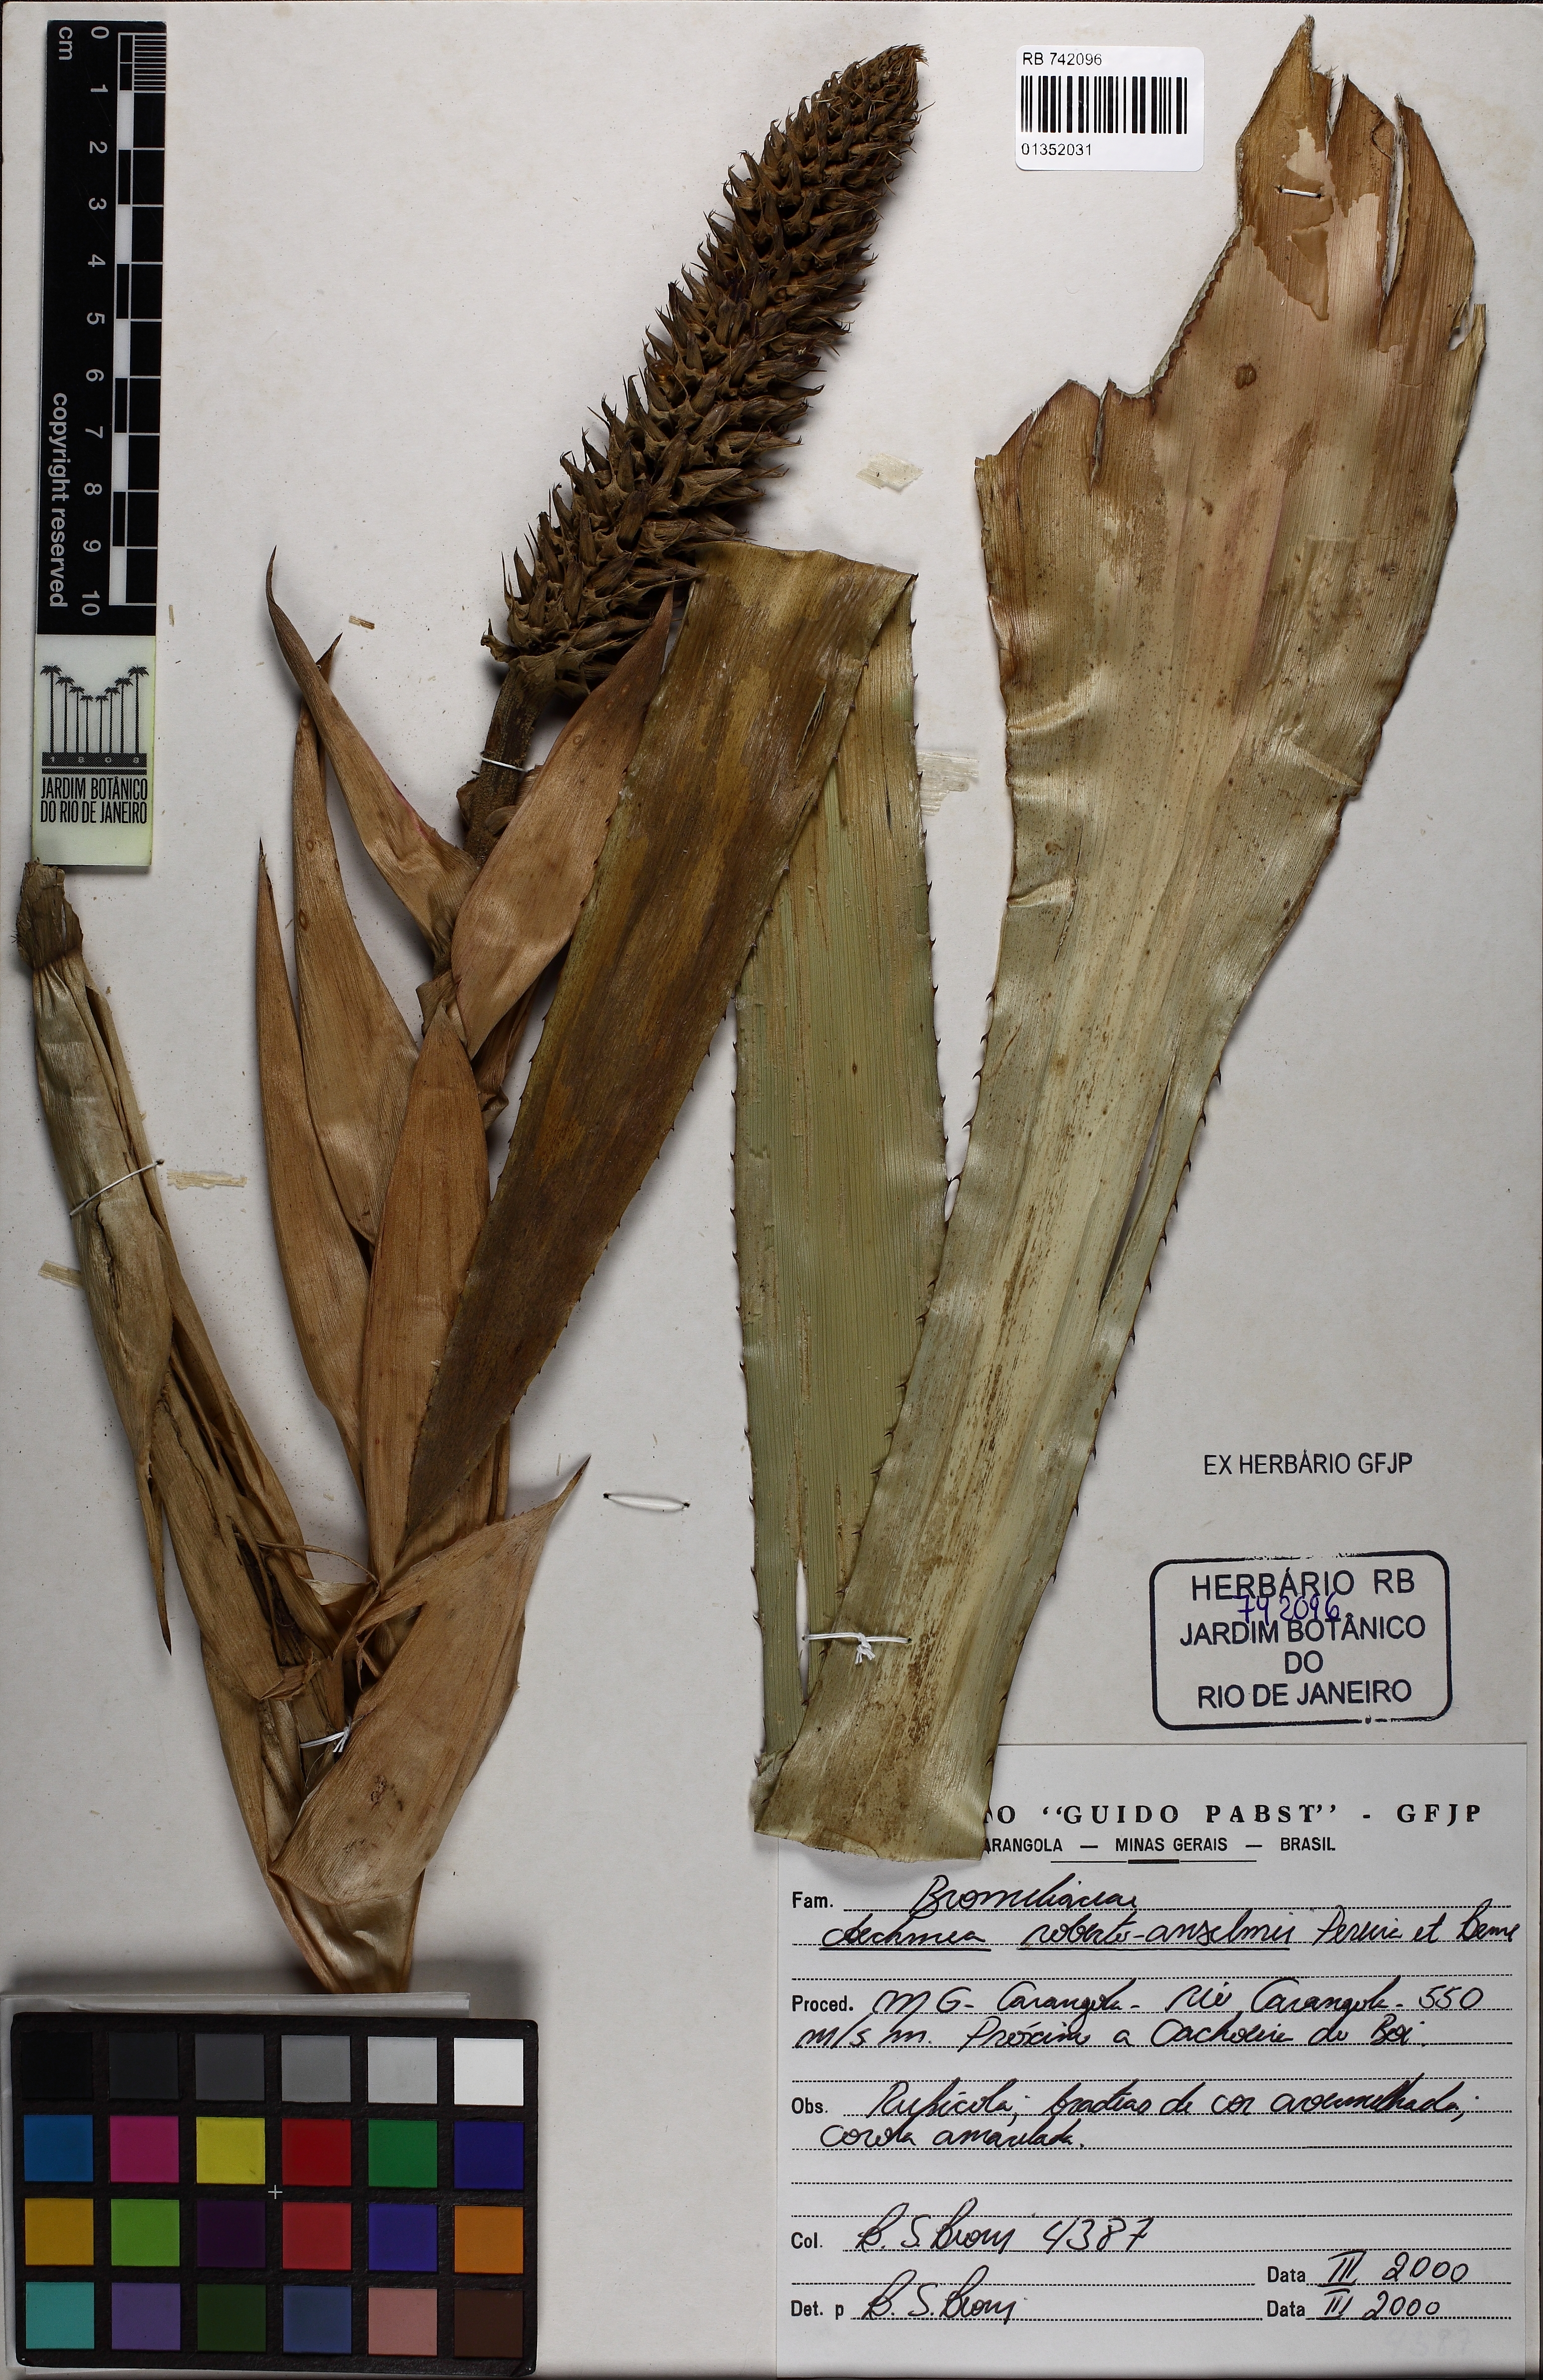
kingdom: Plantae
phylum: Tracheophyta
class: Liliopsida
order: Poales
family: Bromeliaceae
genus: Aechmea
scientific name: Aechmea roberto-anselmi
